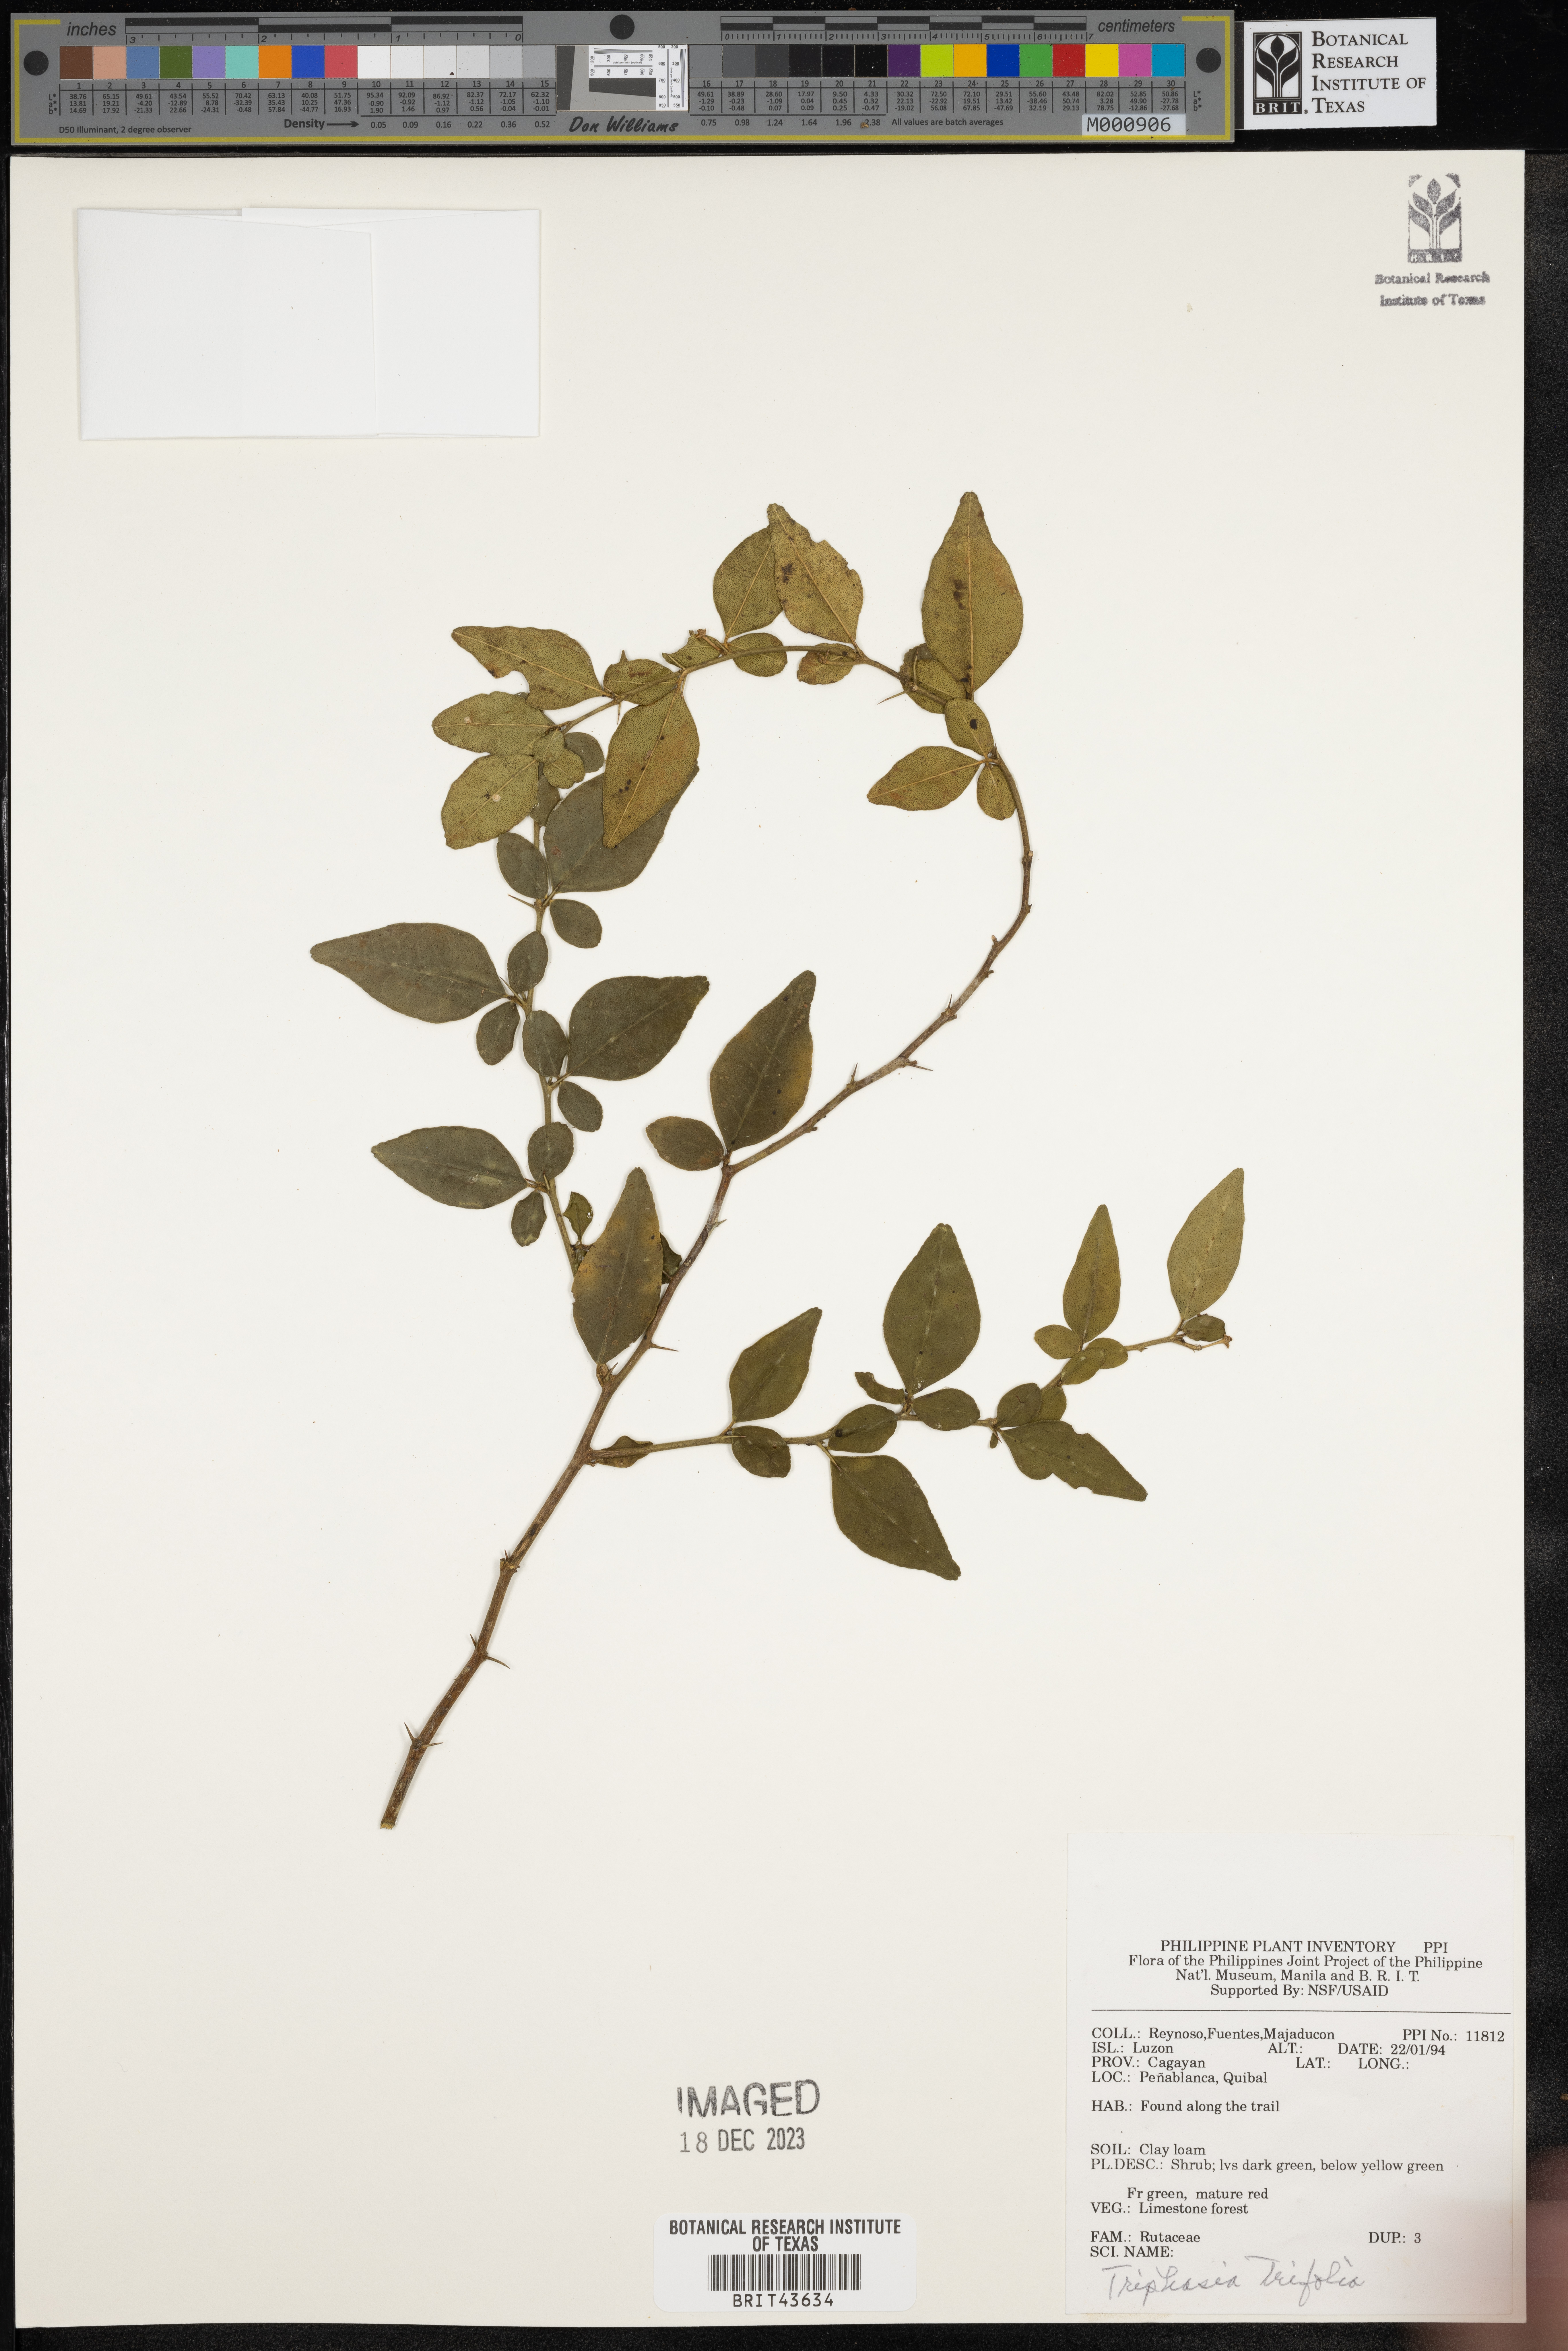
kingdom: Plantae
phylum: Tracheophyta
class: Magnoliopsida
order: Sapindales
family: Rutaceae
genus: Triphasia
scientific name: Triphasia trifolia
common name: Limeberry
